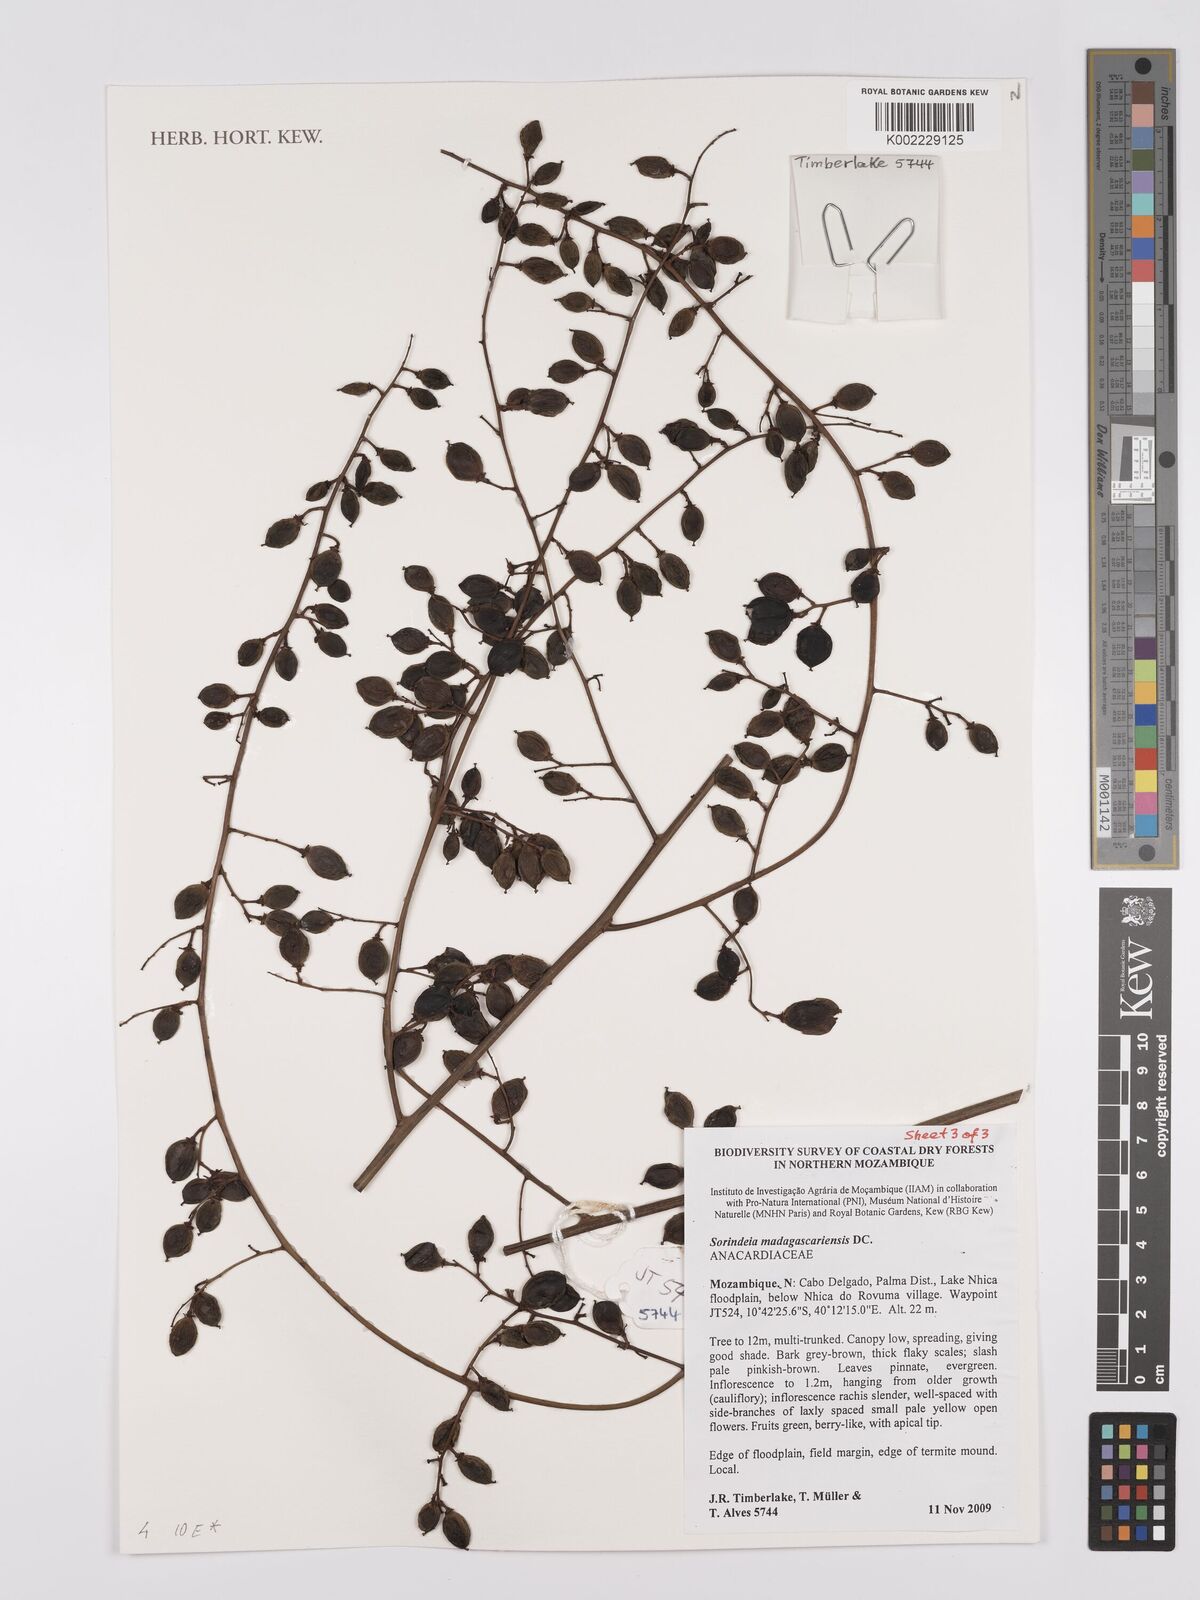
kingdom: Plantae
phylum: Tracheophyta
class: Magnoliopsida
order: Sapindales
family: Anacardiaceae
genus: Sorindeia
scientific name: Sorindeia madagascariensis
